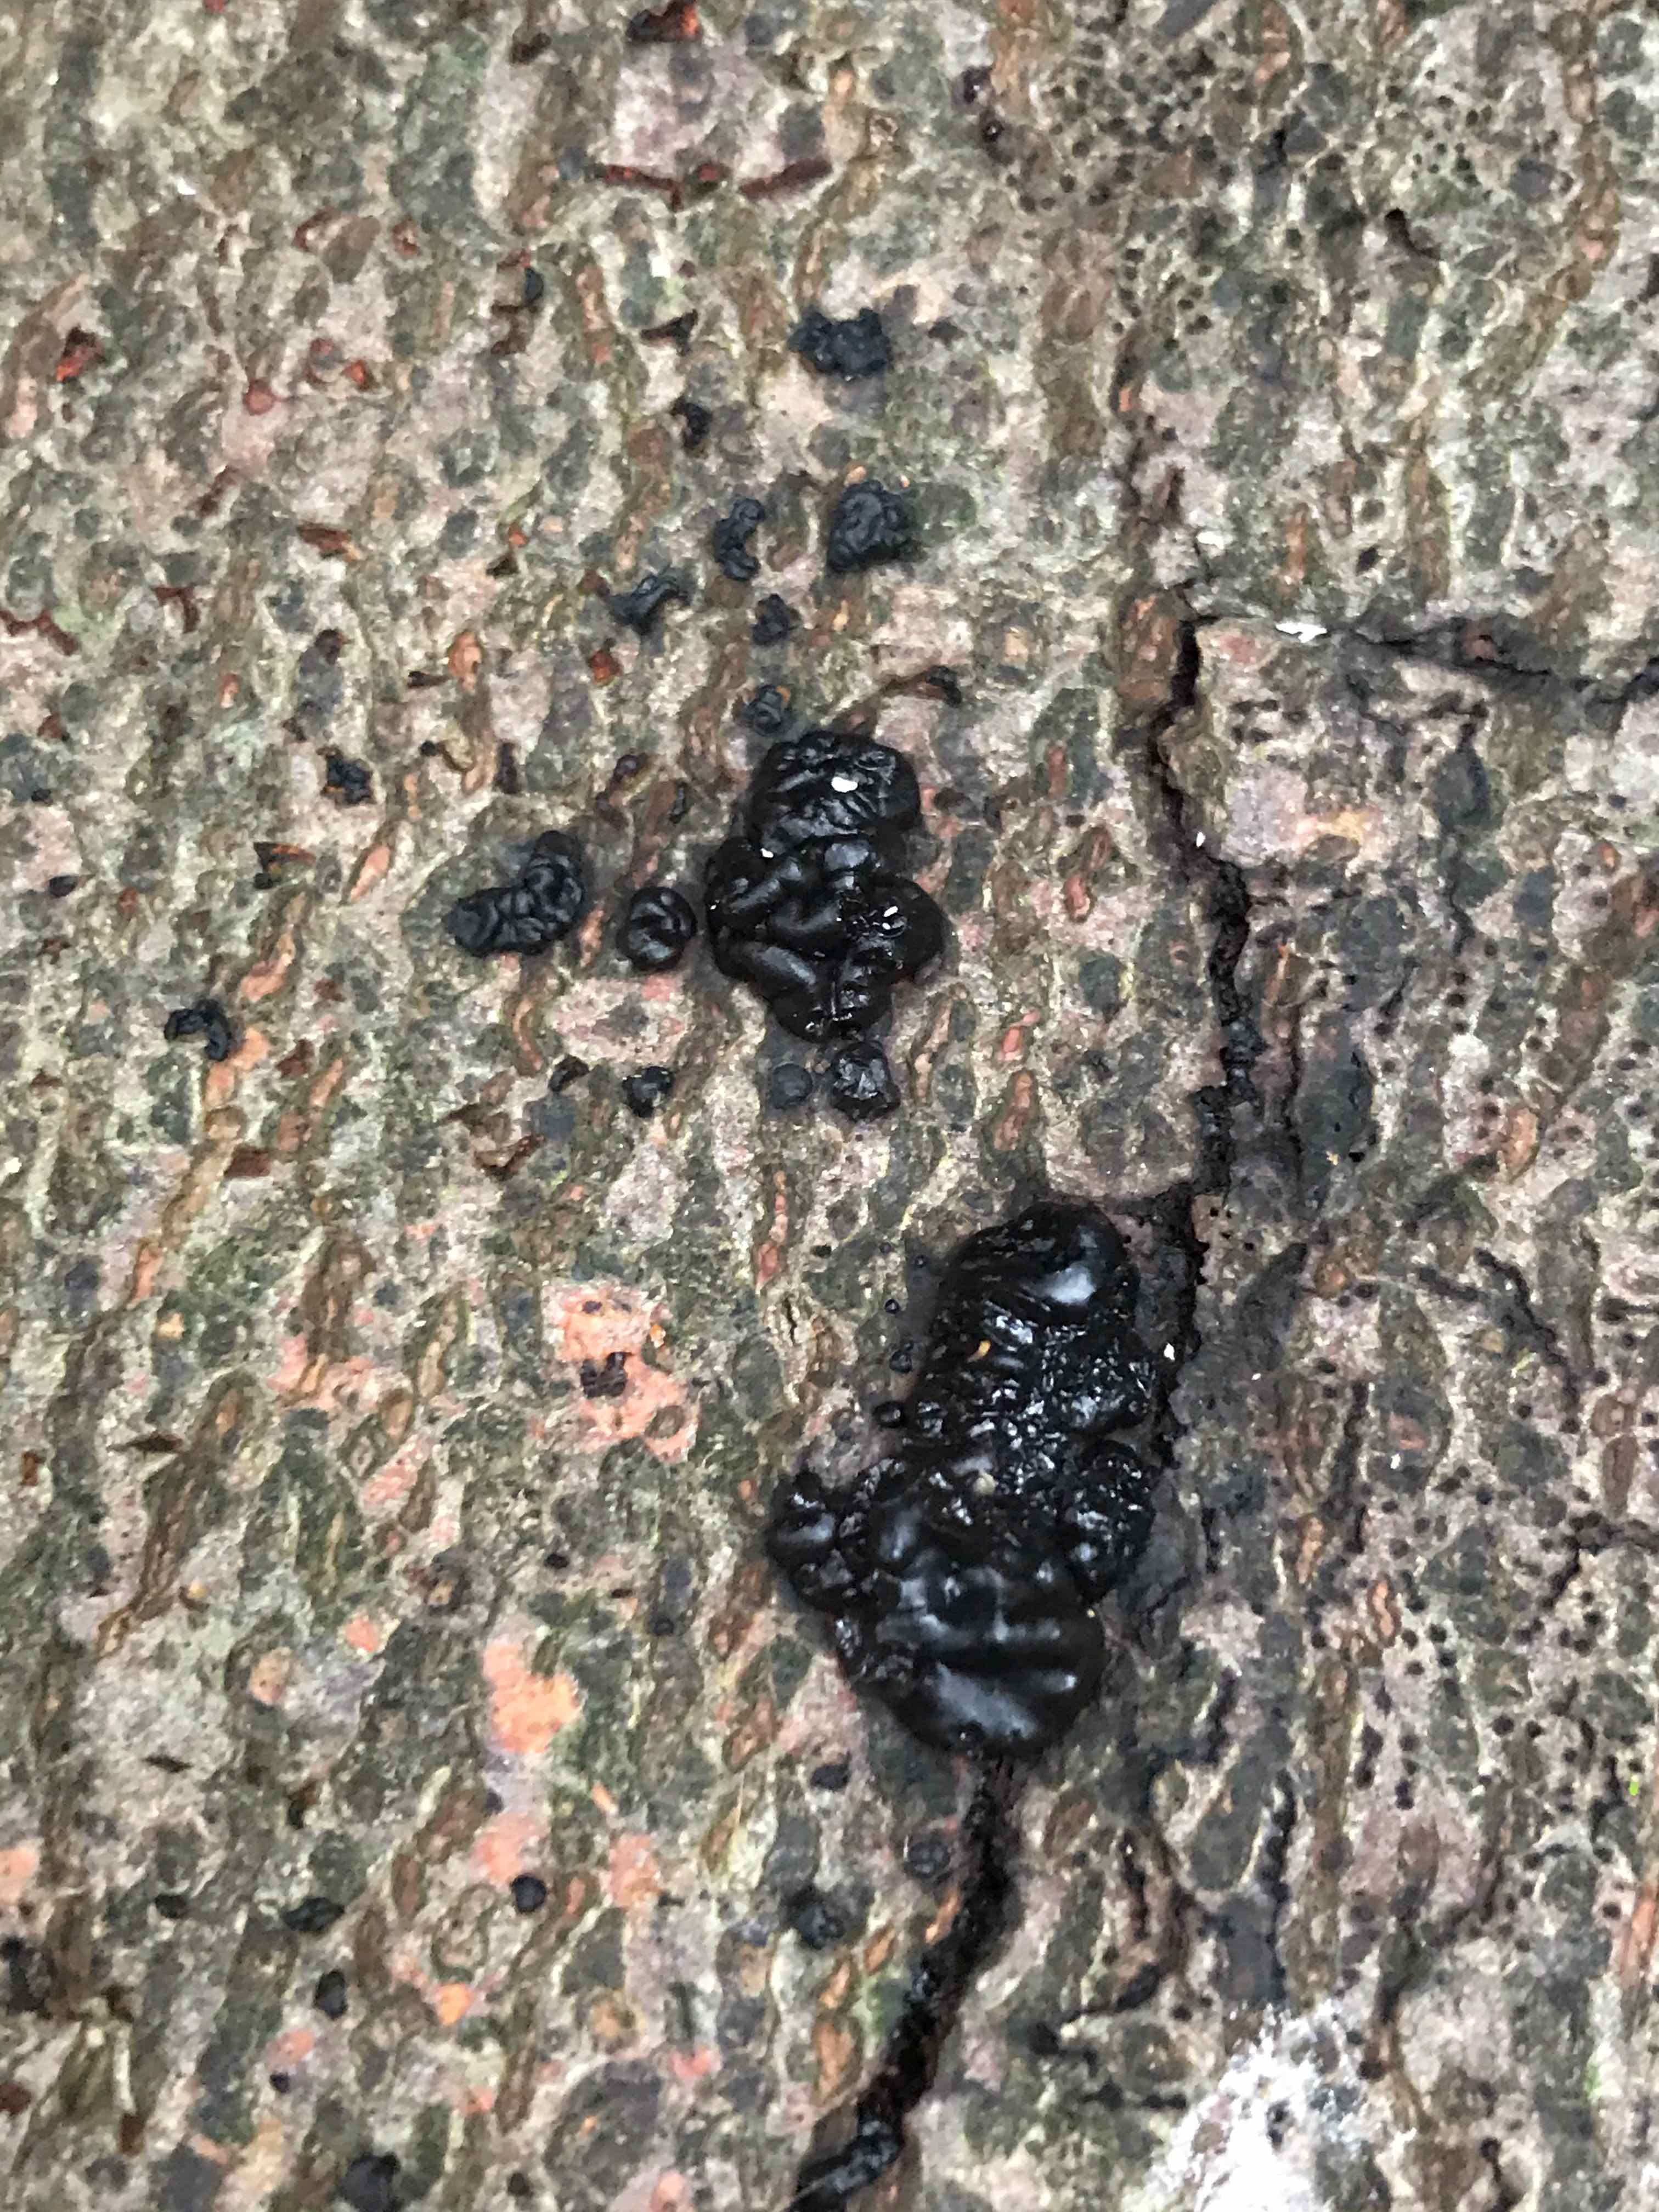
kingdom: Fungi
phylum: Basidiomycota
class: Agaricomycetes
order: Auriculariales
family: Auriculariaceae
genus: Exidia
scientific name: Exidia nigricans
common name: almindelig bævretop
